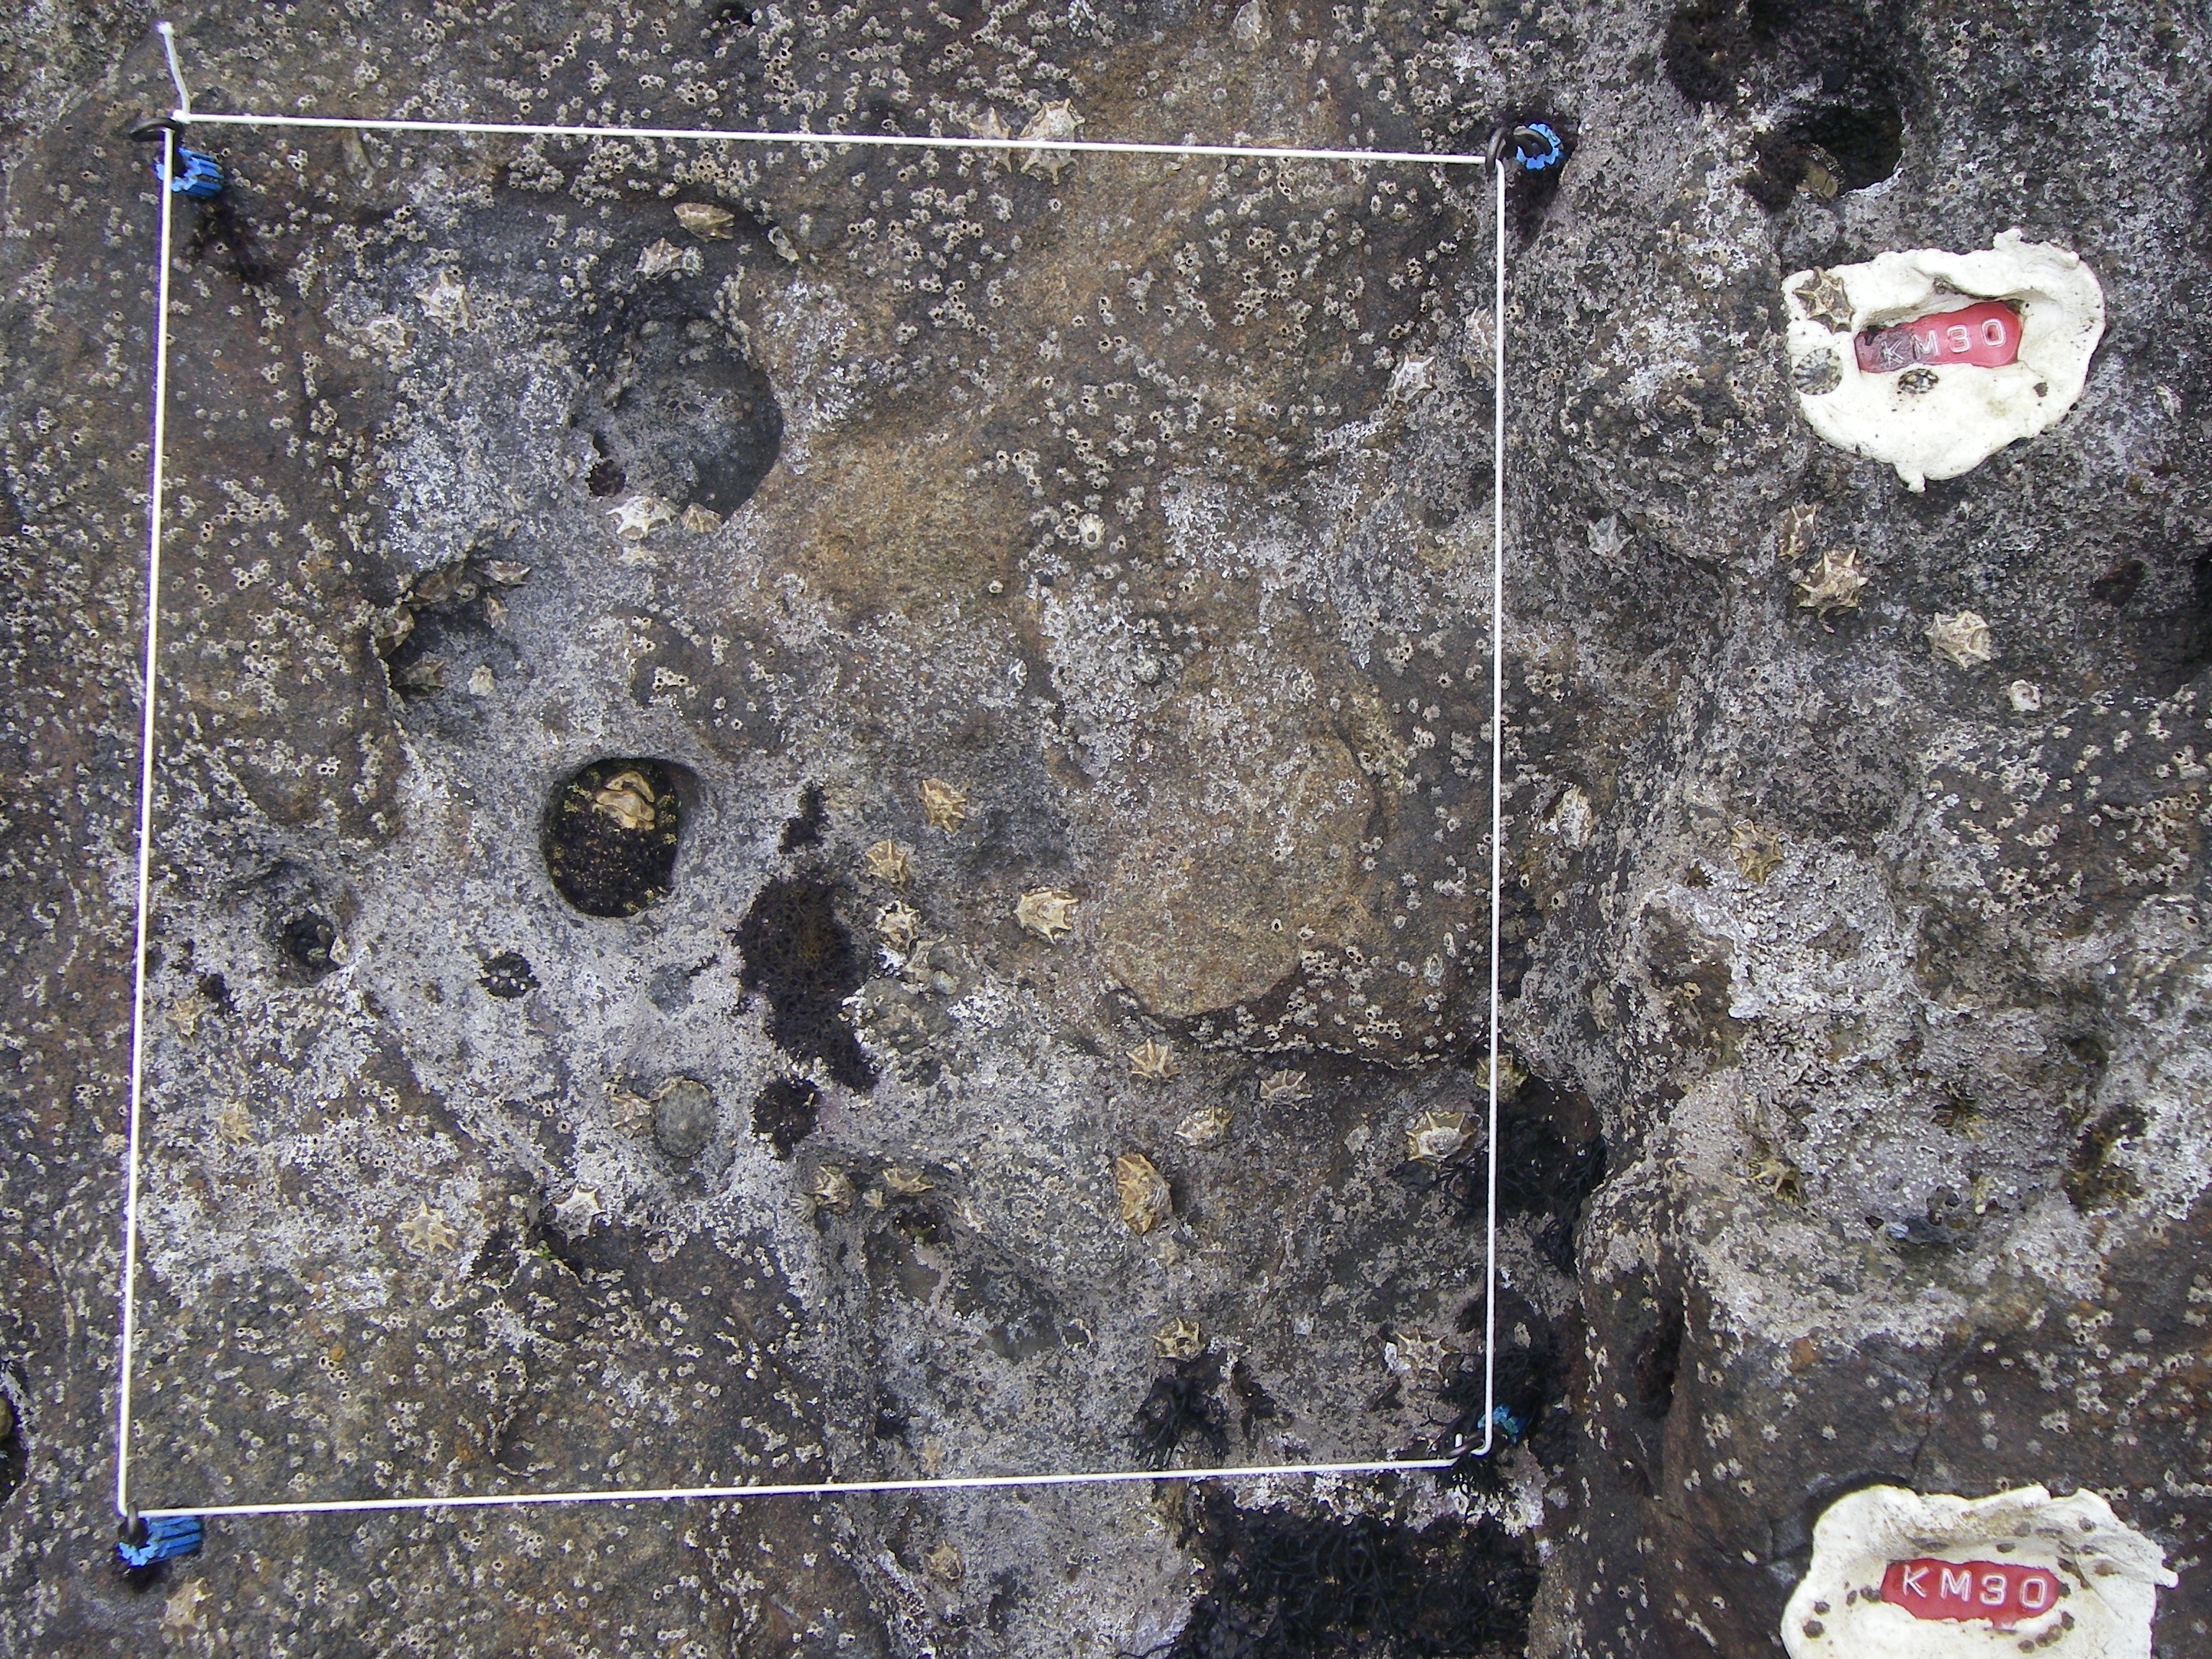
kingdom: Chromista
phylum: Ochrophyta
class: Phaeophyceae
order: Fucales
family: Sargassaceae
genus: Sargassum
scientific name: Sargassum fusiforme
